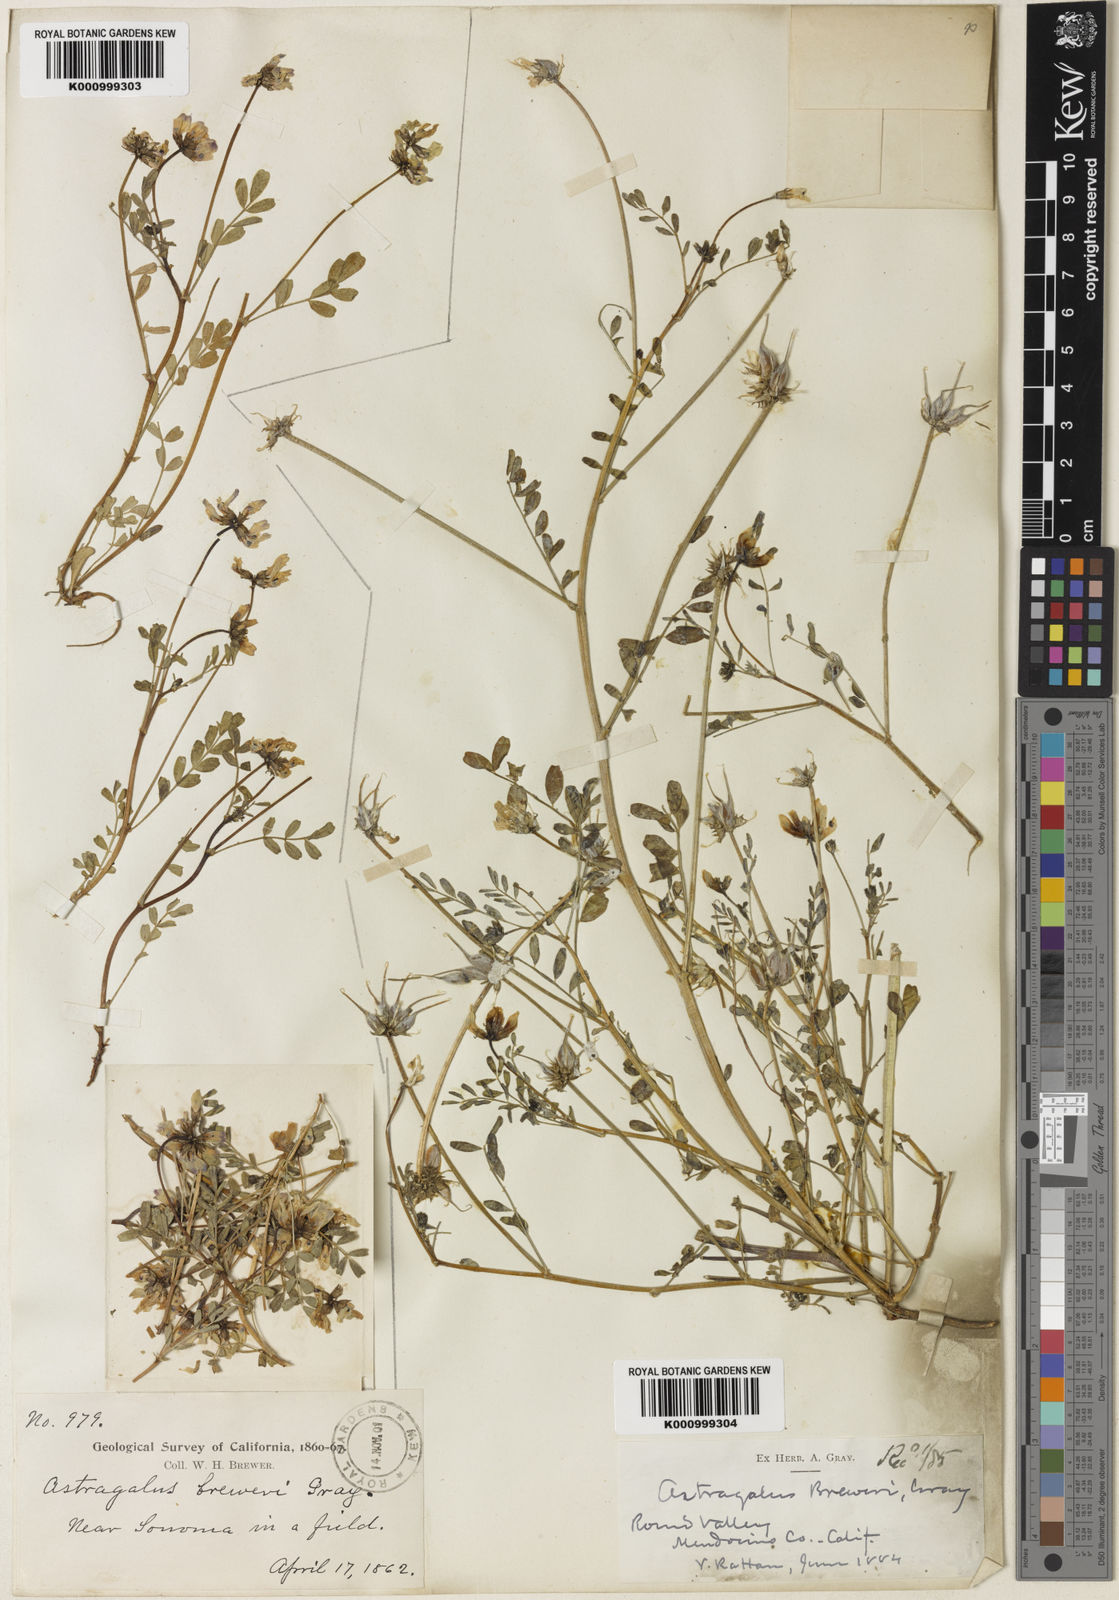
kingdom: Plantae
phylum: Tracheophyta
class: Magnoliopsida
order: Fabales
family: Fabaceae
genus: Astragalus
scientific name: Astragalus breweri
